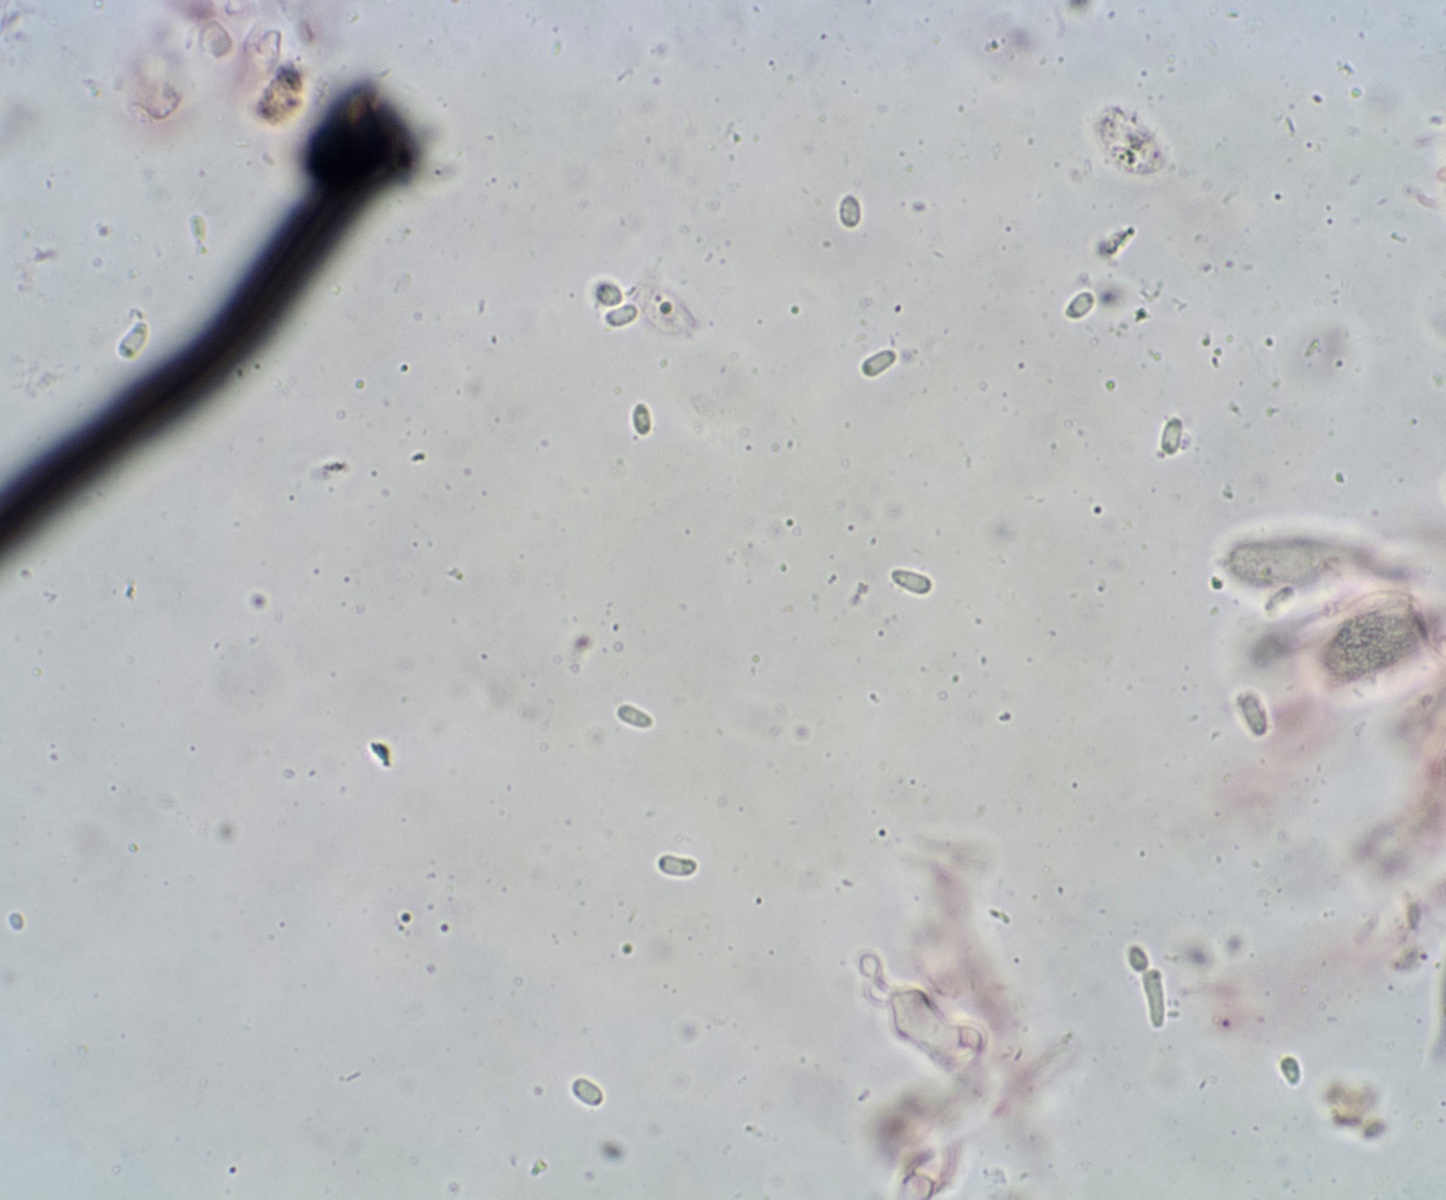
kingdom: Fungi
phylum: Ascomycota
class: Leotiomycetes
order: Helotiales
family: Hyaloscyphaceae
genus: Dematioscypha
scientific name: Dematioscypha dematiicola
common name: grålig skimmelskive
